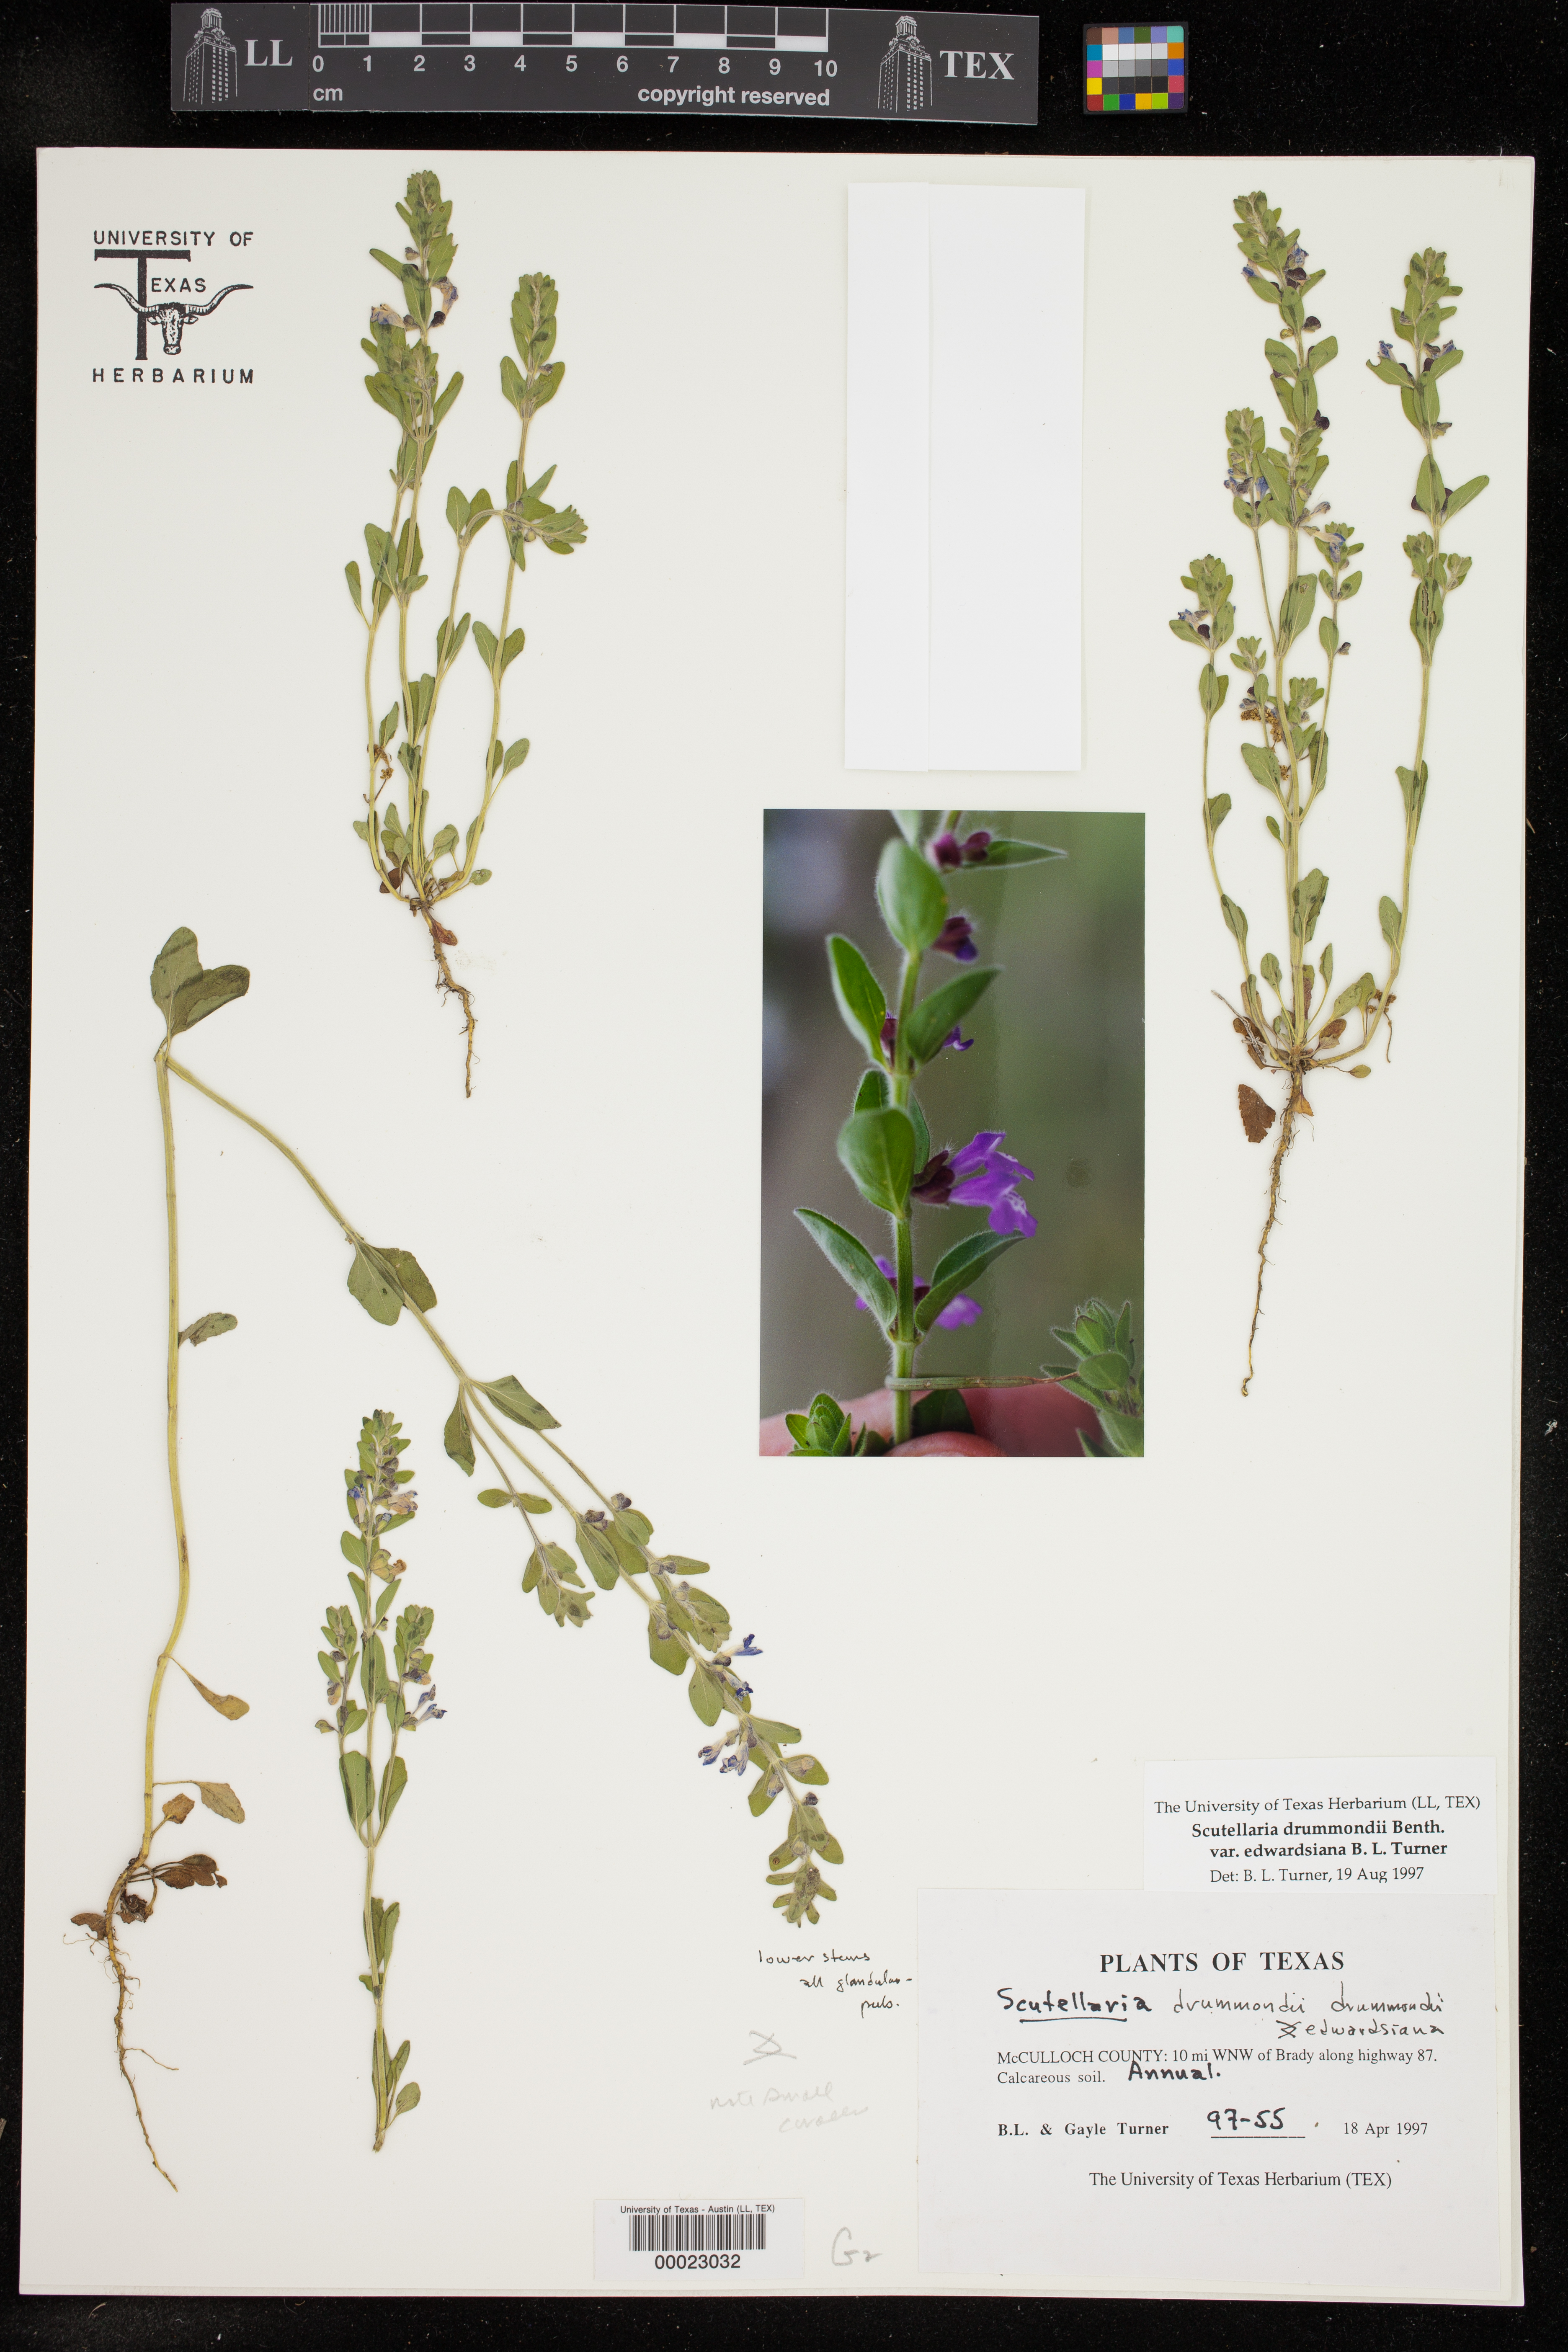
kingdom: Plantae
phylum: Tracheophyta
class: Magnoliopsida
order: Lamiales
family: Lamiaceae
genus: Scutellaria
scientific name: Scutellaria drummondii
